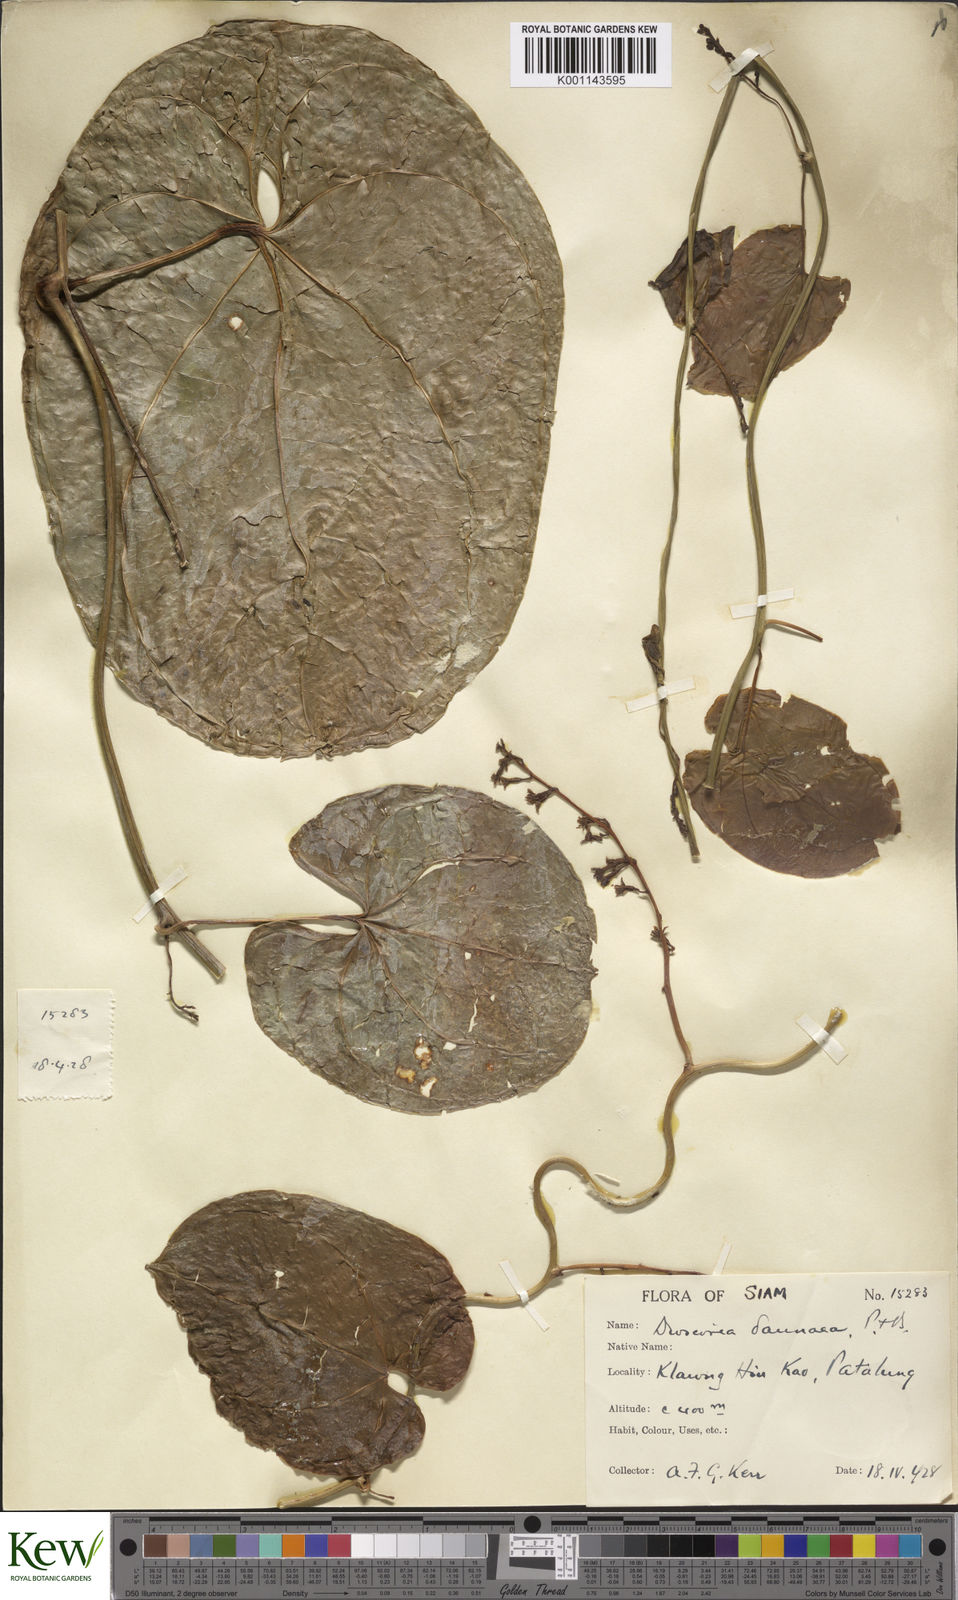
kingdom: Plantae
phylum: Tracheophyta
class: Liliopsida
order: Dioscoreales
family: Dioscoreaceae
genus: Dioscorea
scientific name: Dioscorea daunea
